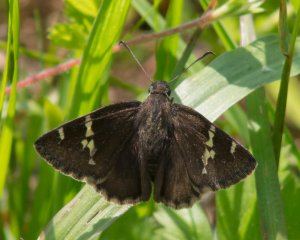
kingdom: Animalia
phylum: Arthropoda
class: Insecta
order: Lepidoptera
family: Hesperiidae
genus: Autochton
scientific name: Autochton
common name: Southern Cloudywing
